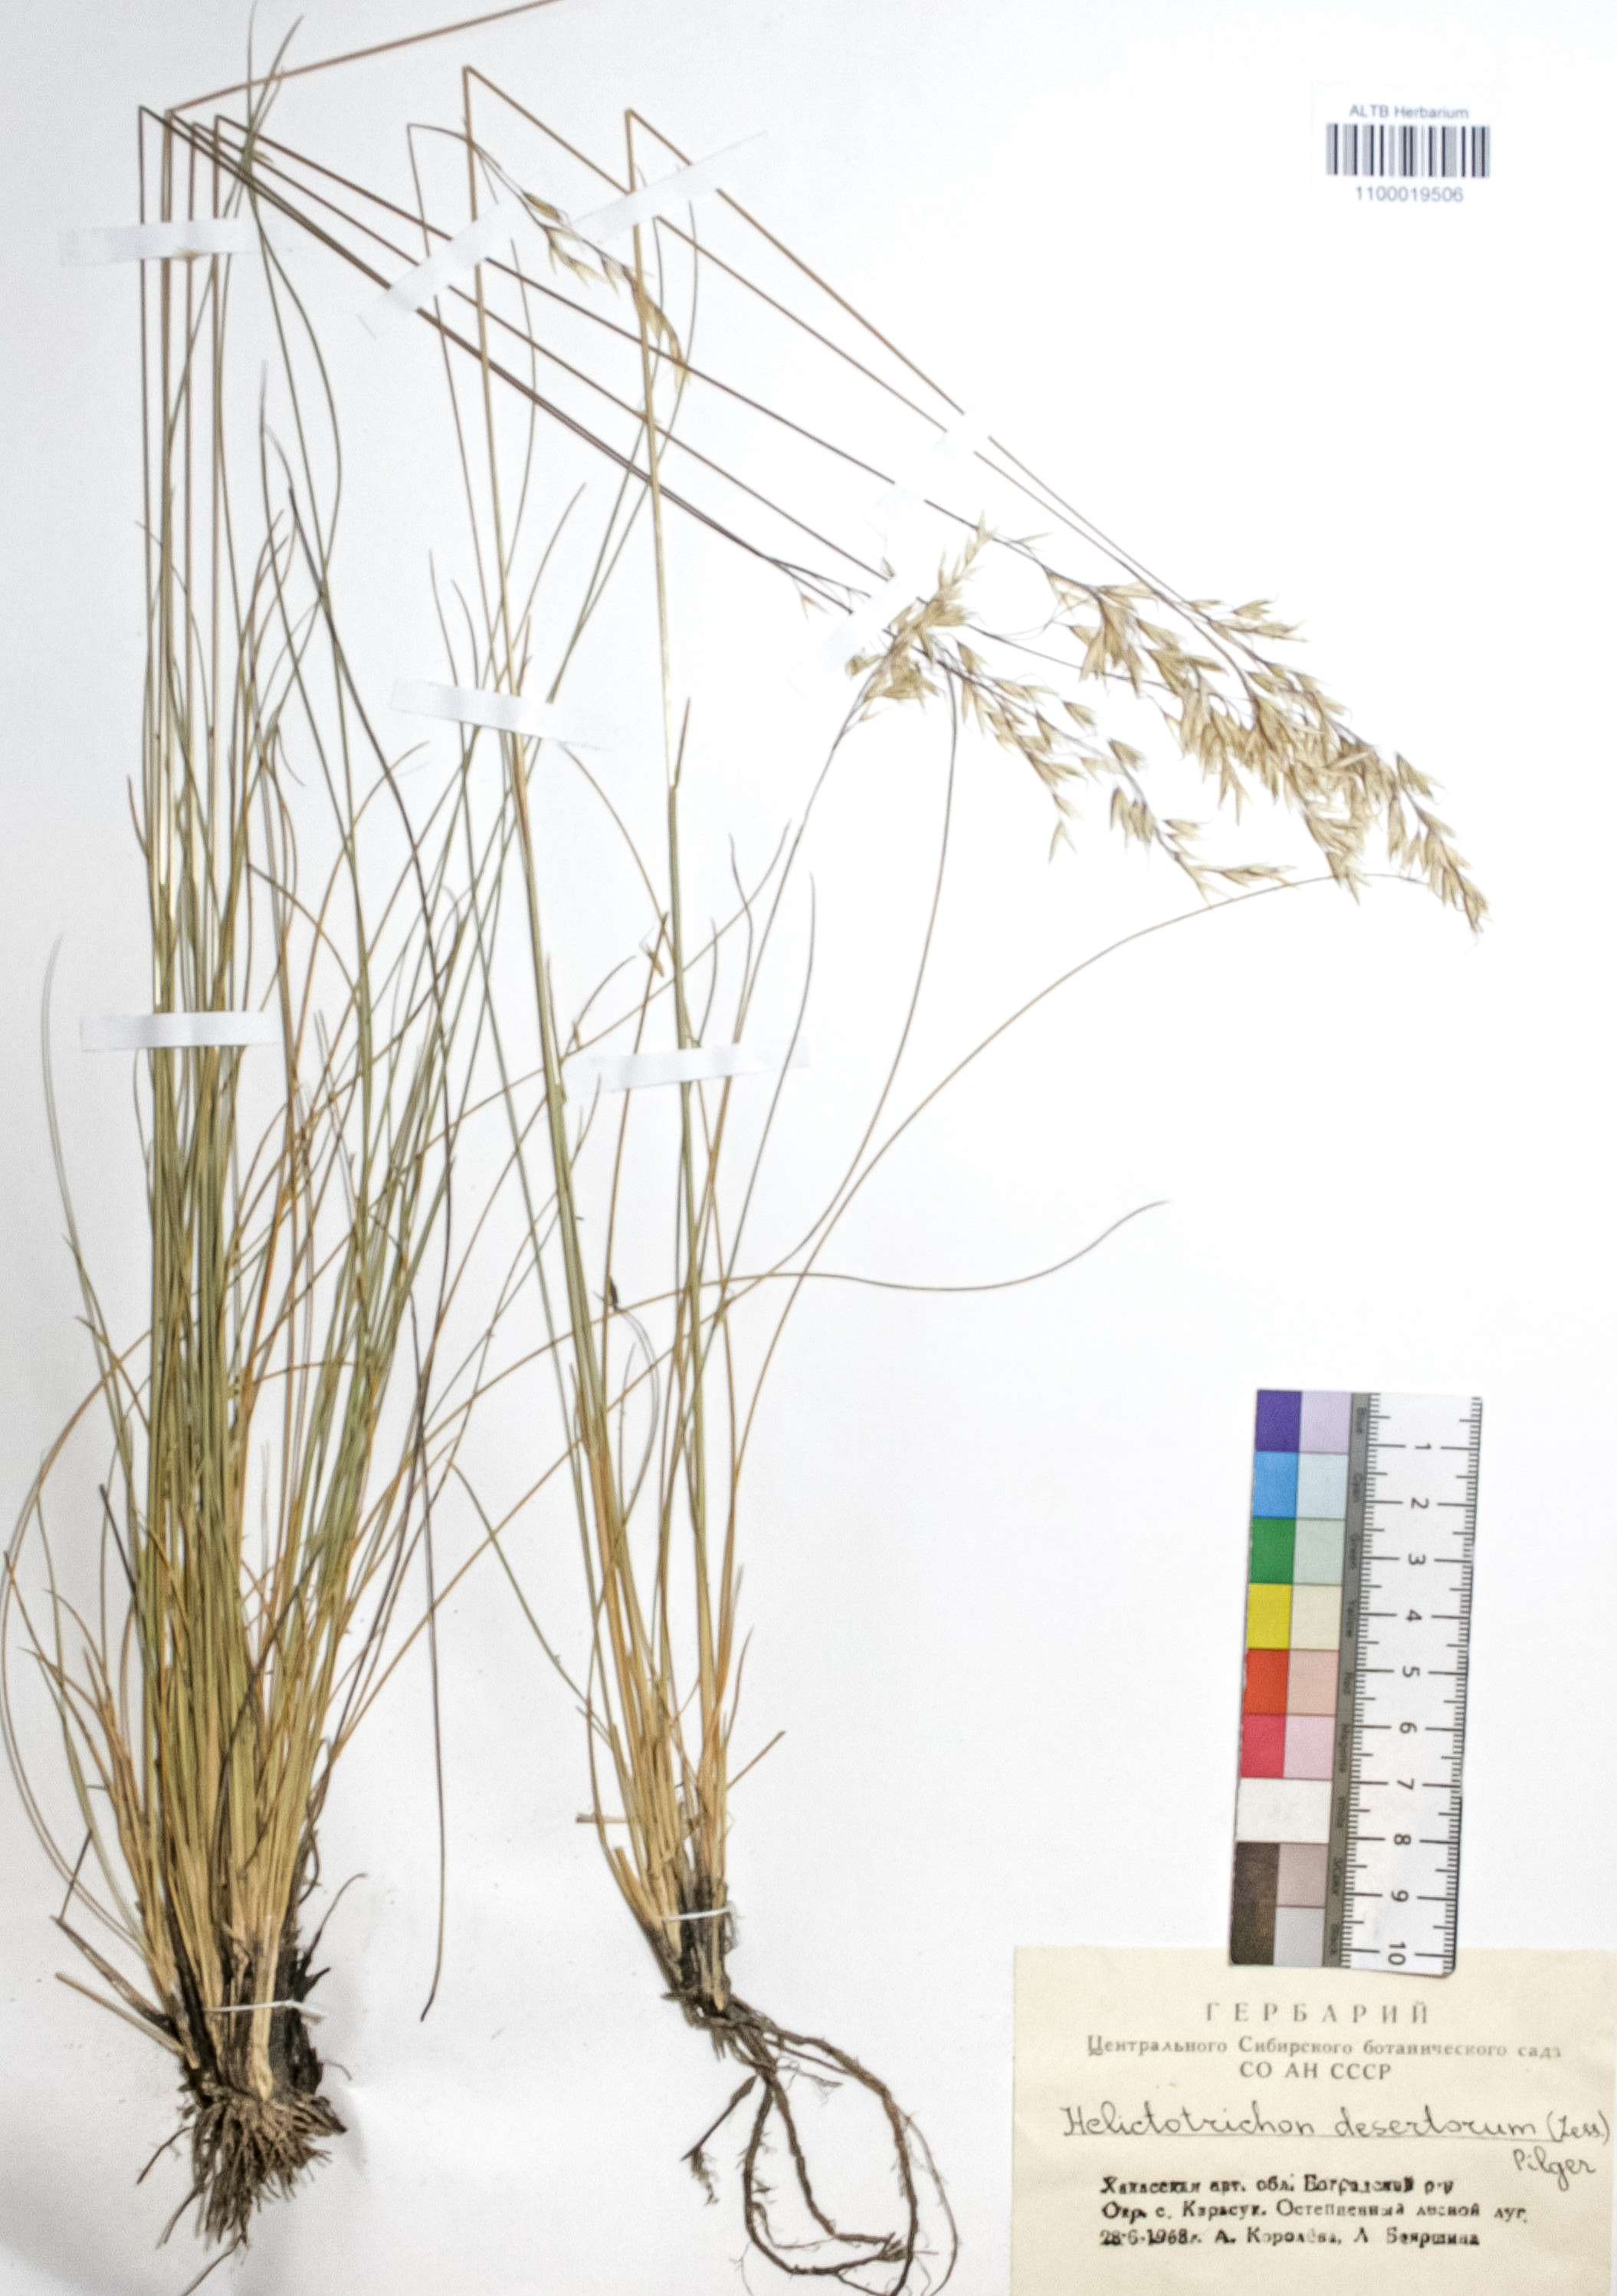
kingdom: Plantae
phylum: Tracheophyta
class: Liliopsida
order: Poales
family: Poaceae
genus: Helictotrichon
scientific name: Helictotrichon desertorum
